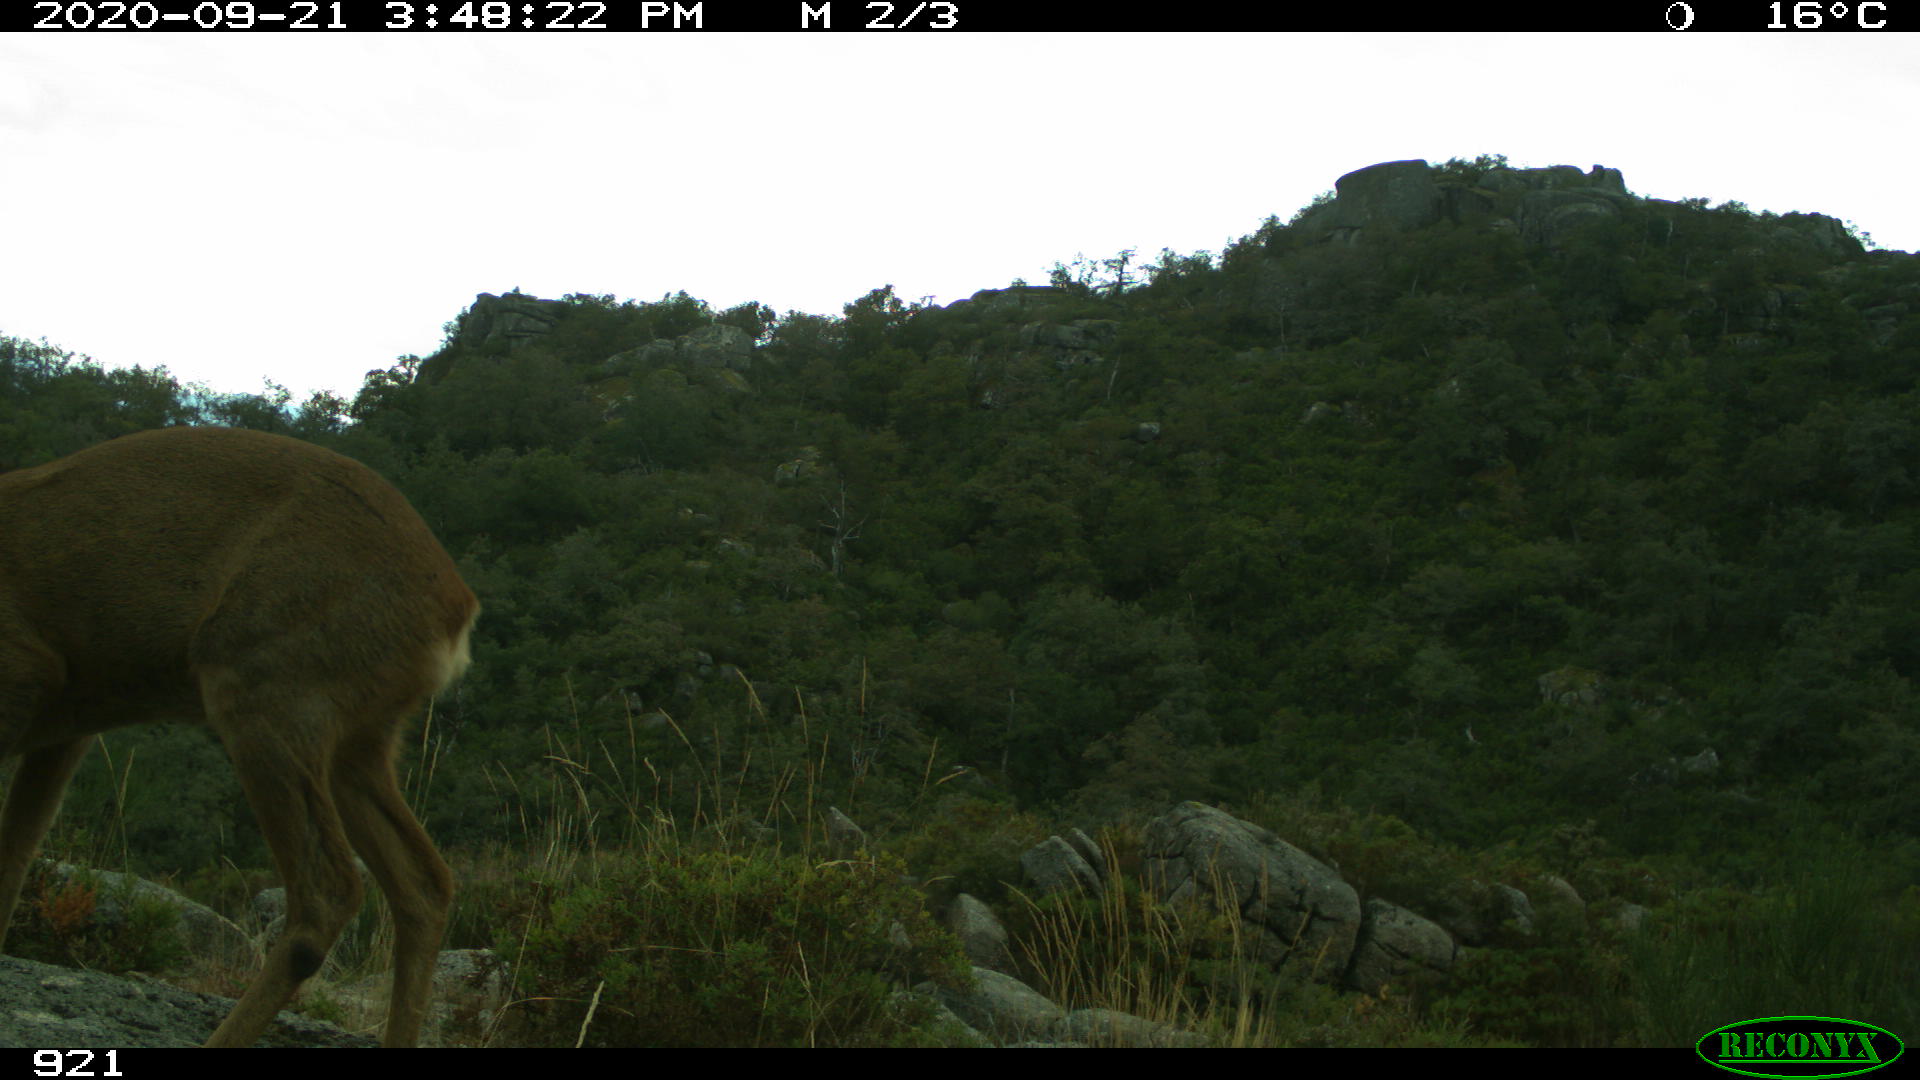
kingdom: Animalia
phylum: Chordata
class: Mammalia
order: Artiodactyla
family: Cervidae
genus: Capreolus
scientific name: Capreolus capreolus
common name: Western roe deer
